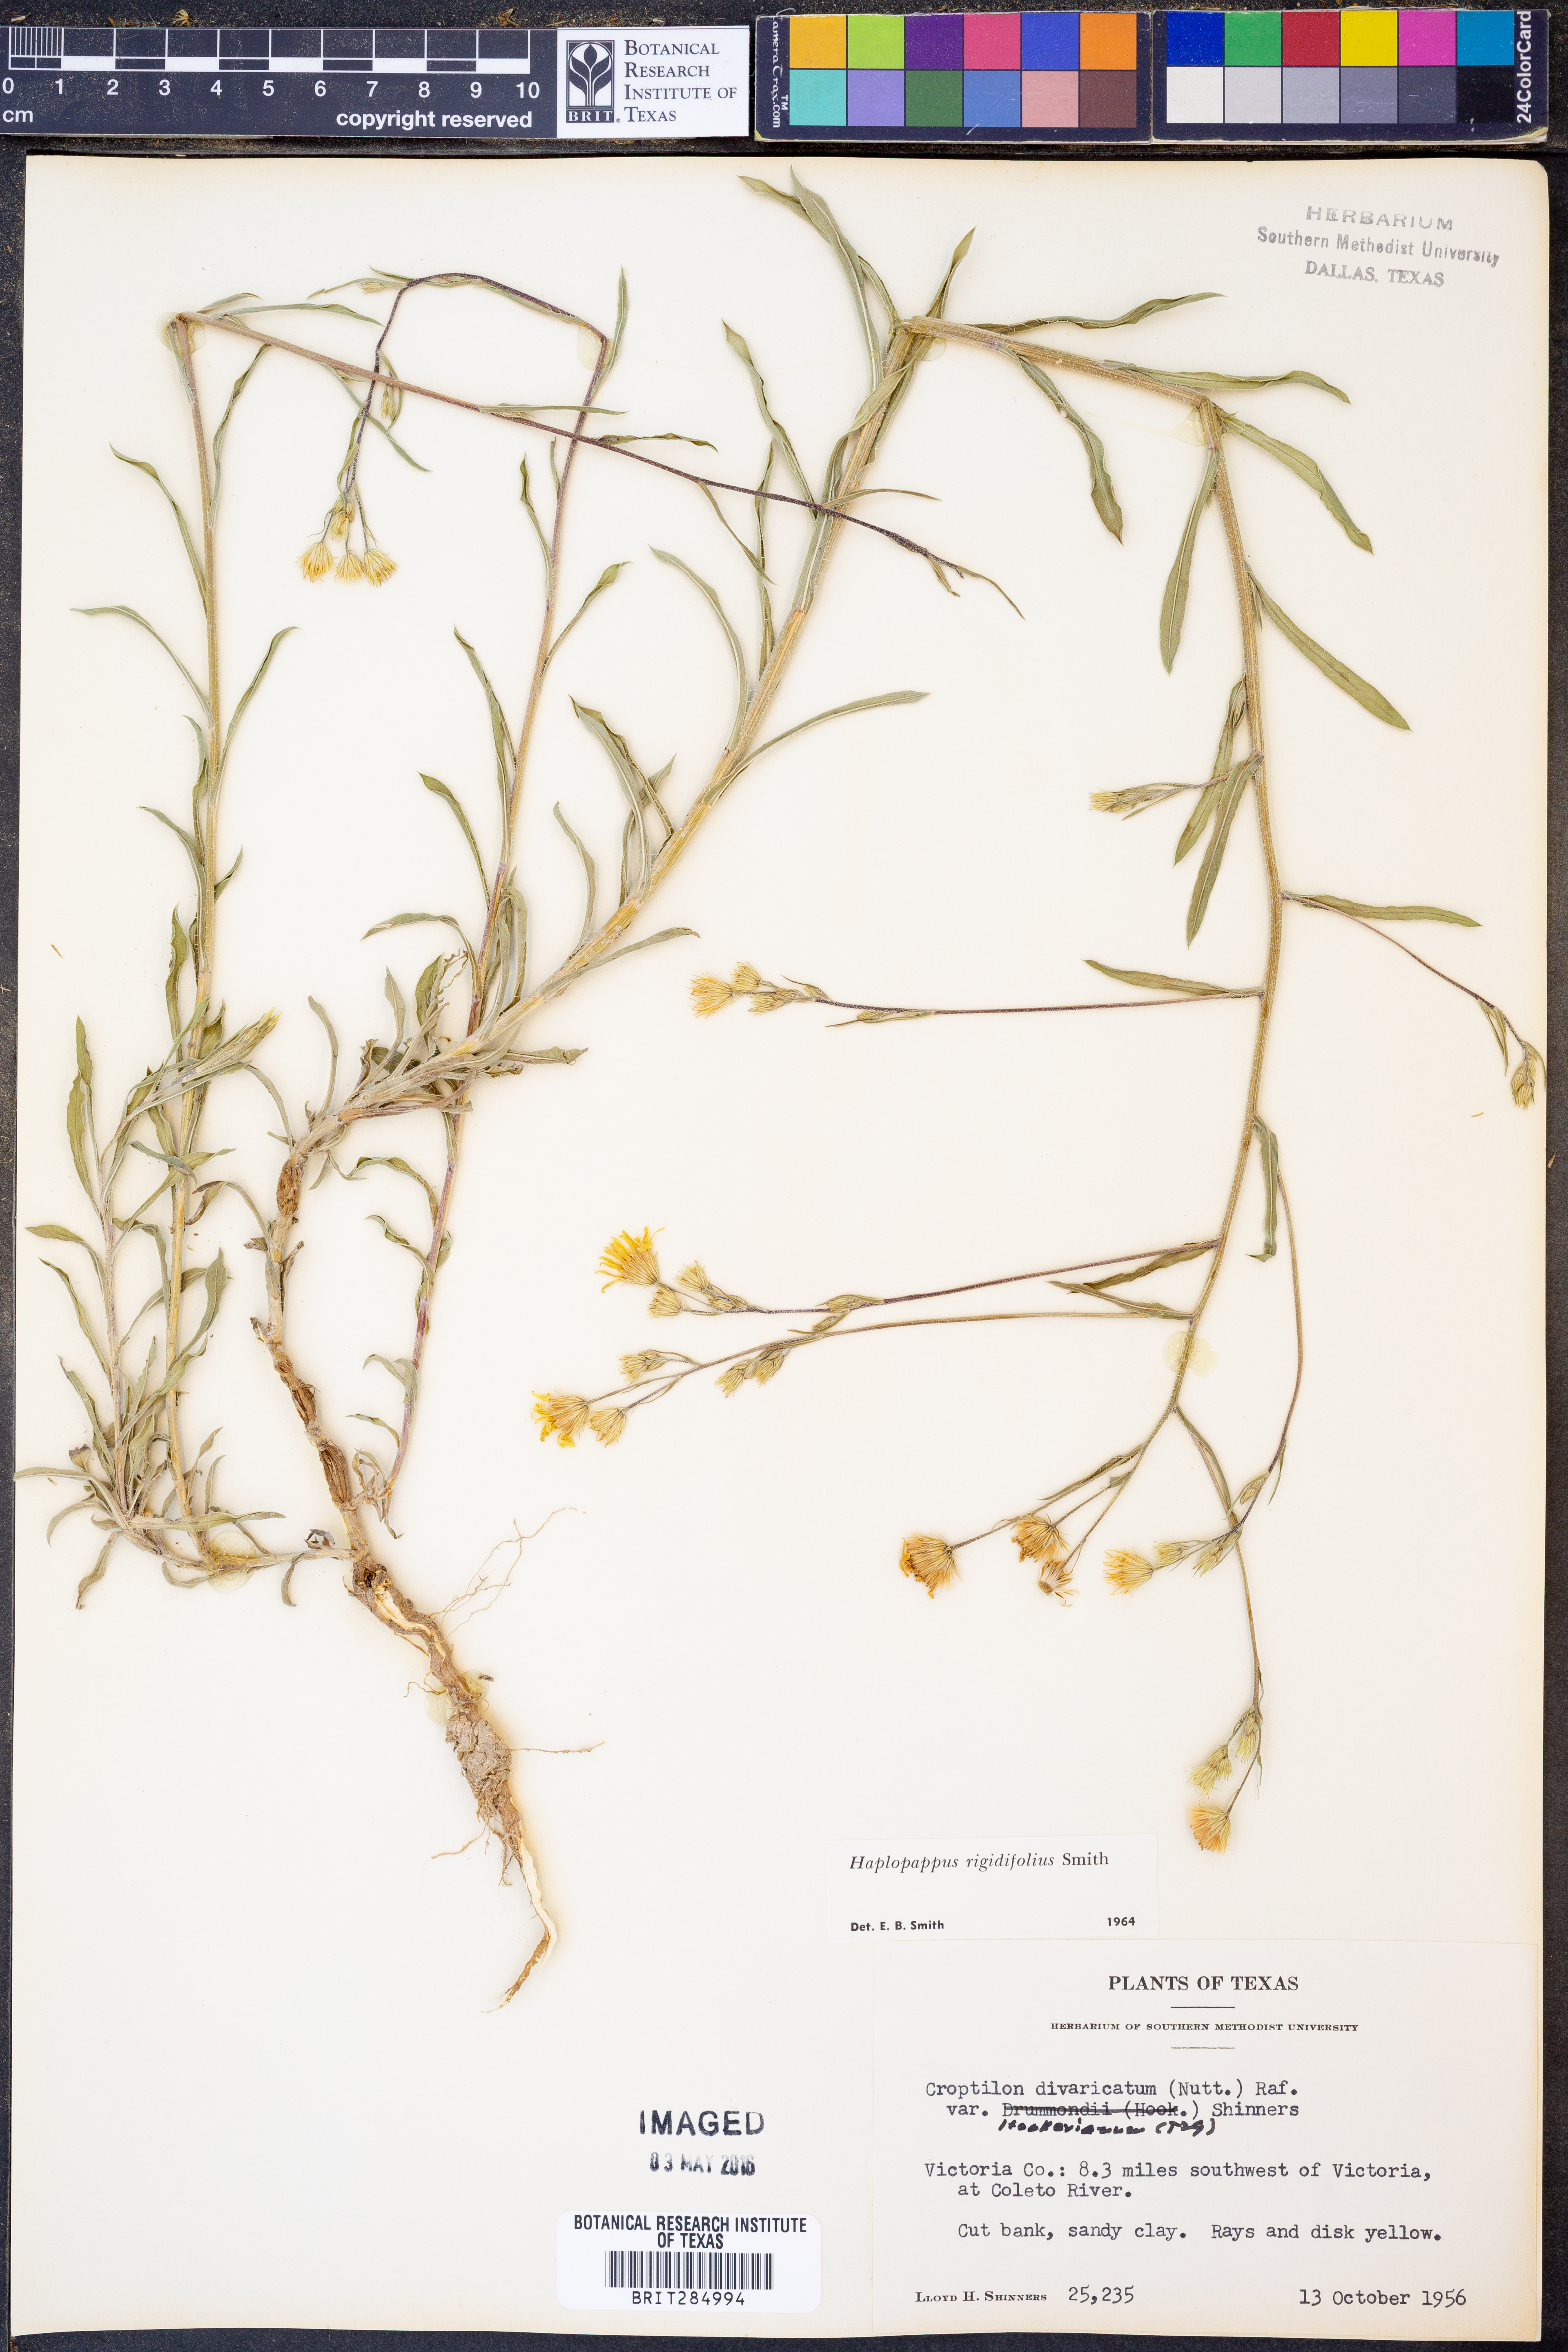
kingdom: Plantae
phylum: Tracheophyta
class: Magnoliopsida
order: Asterales
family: Asteraceae
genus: Croptilon
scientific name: Croptilon rigidifolium
